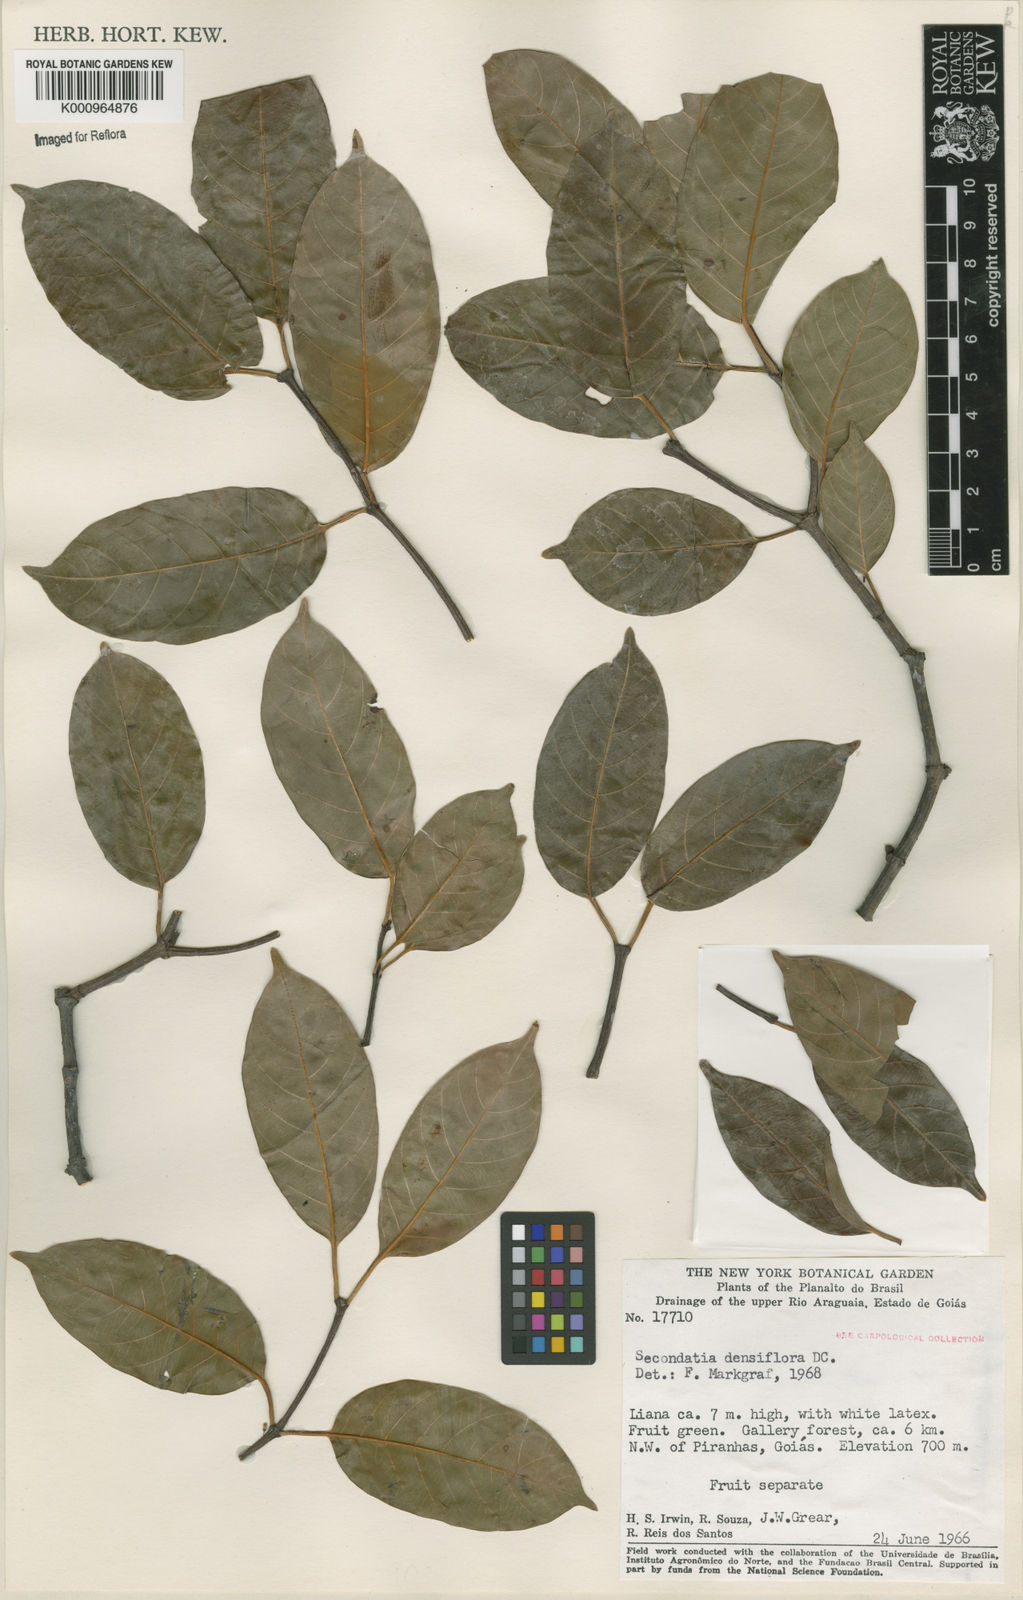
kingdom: Plantae
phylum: Tracheophyta
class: Magnoliopsida
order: Gentianales
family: Apocynaceae
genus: Secondatia
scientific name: Secondatia densiflora
